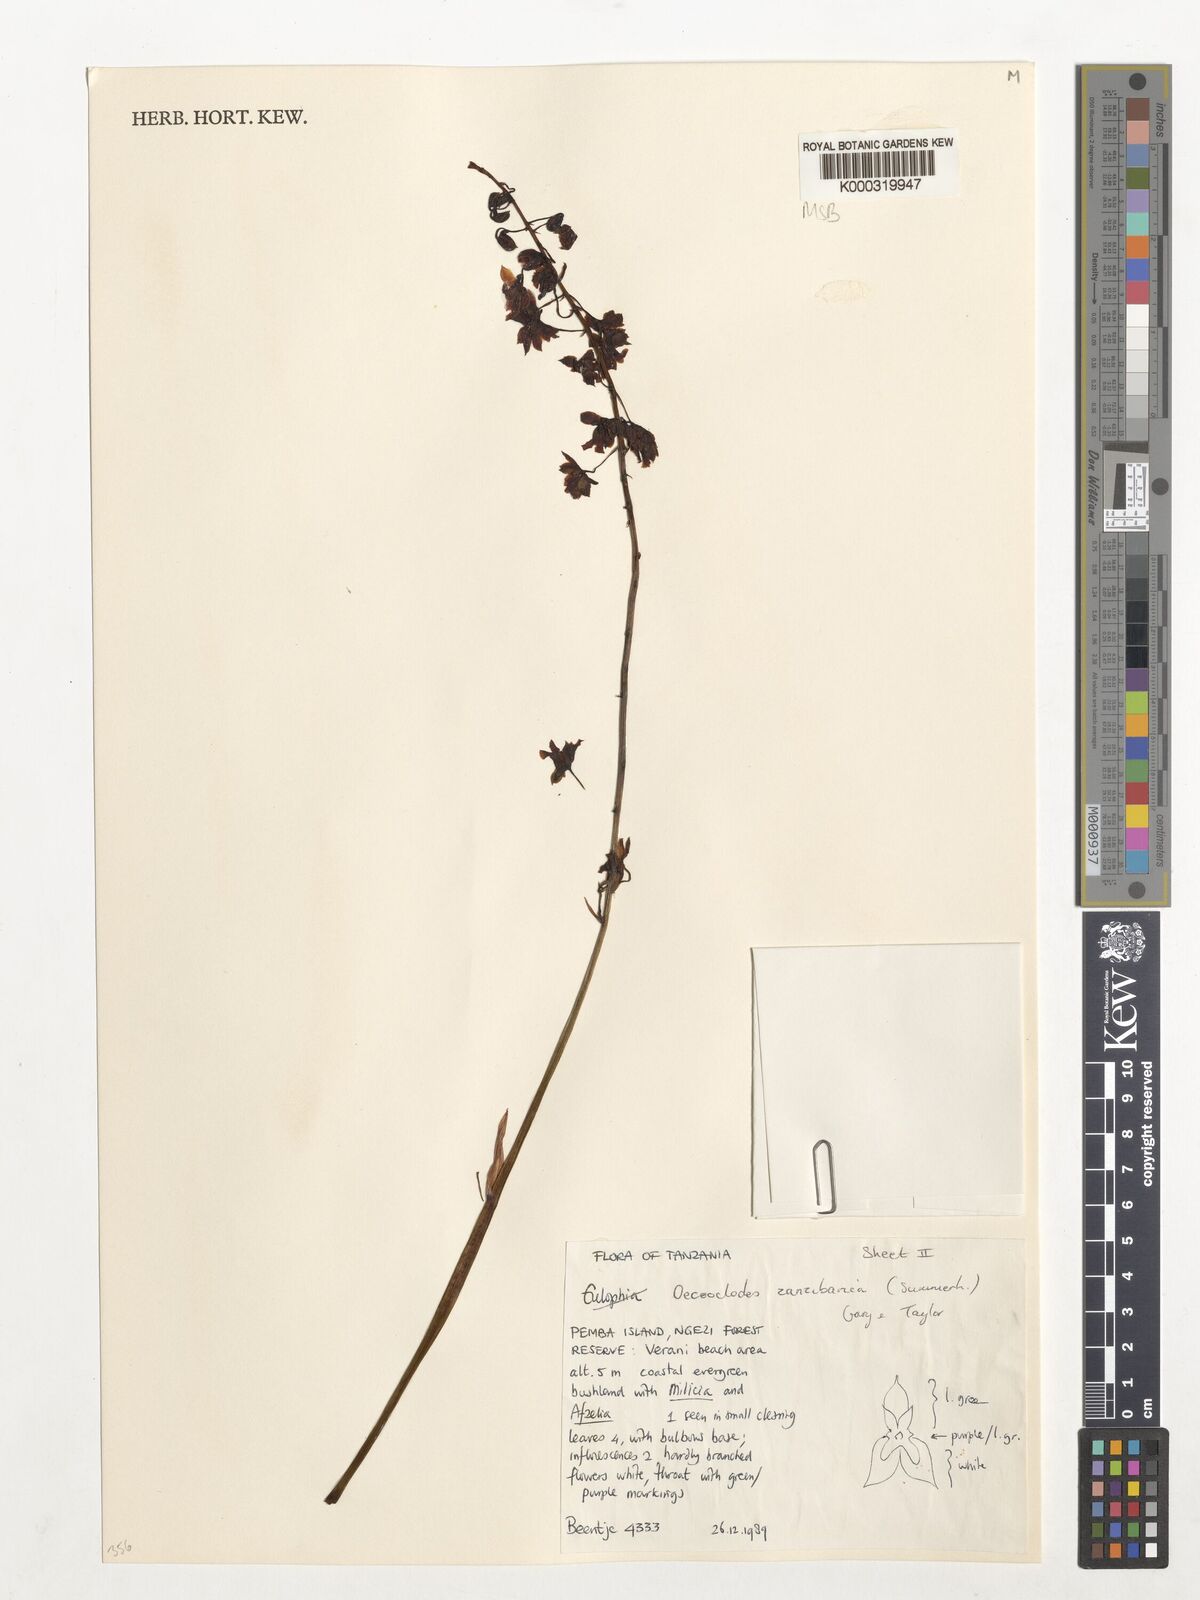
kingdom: Plantae
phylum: Tracheophyta
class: Liliopsida
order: Asparagales
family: Orchidaceae
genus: Eulophia
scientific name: Eulophia zanzibarica
